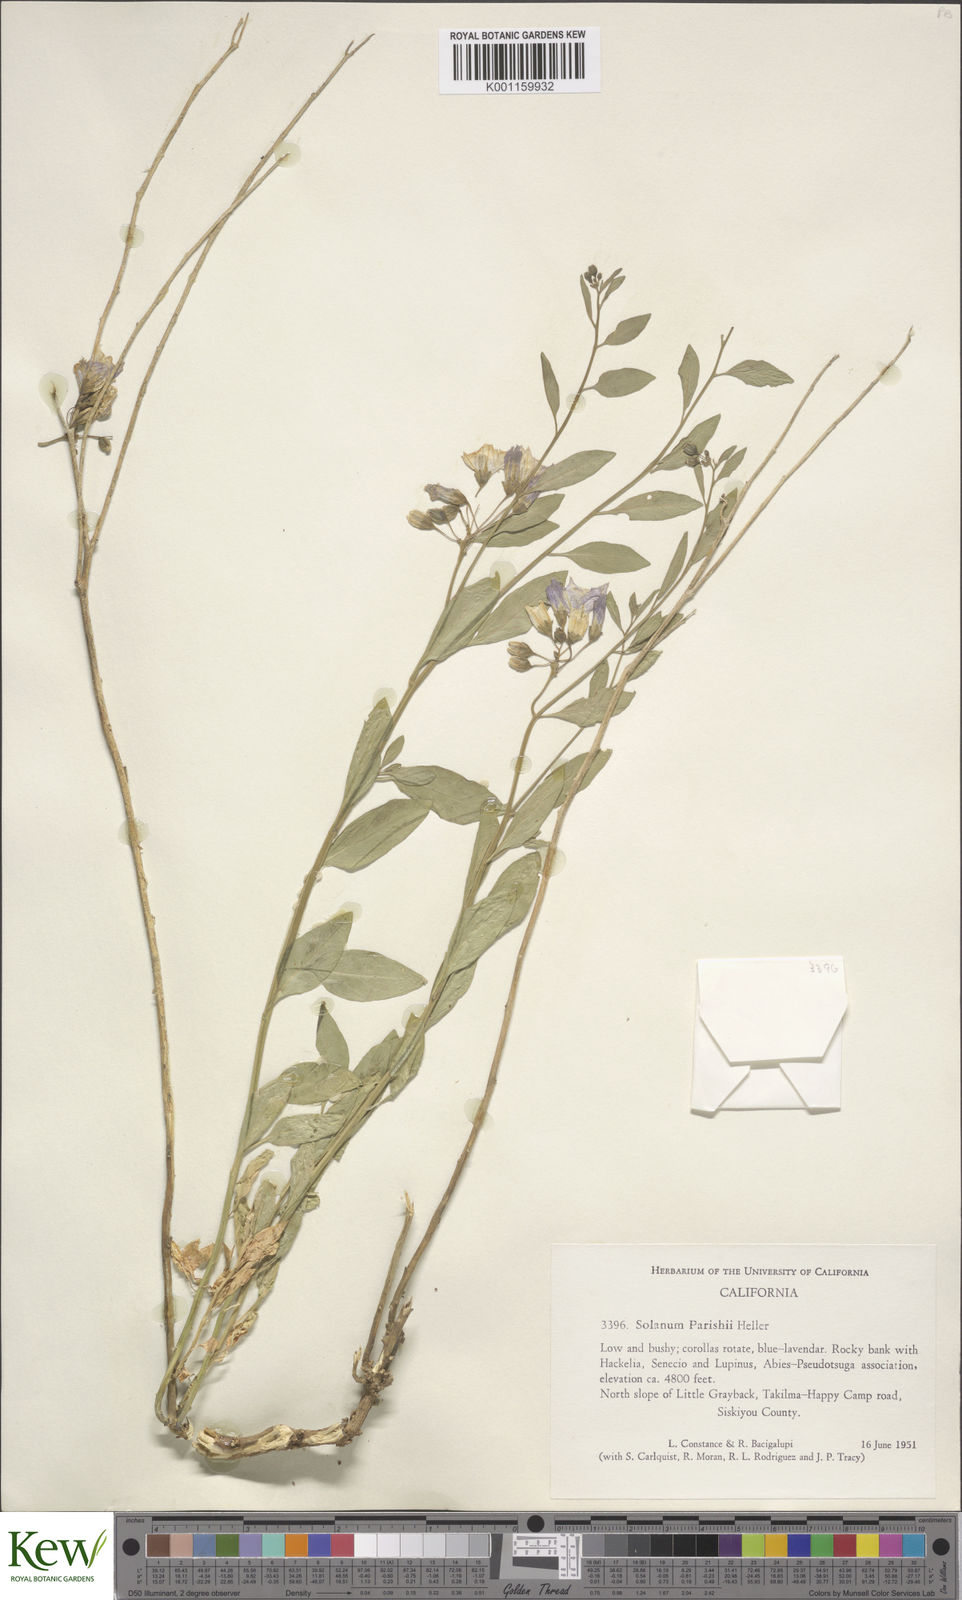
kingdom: Plantae
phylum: Tracheophyta
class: Magnoliopsida
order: Solanales
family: Solanaceae
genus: Solanum
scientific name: Solanum
